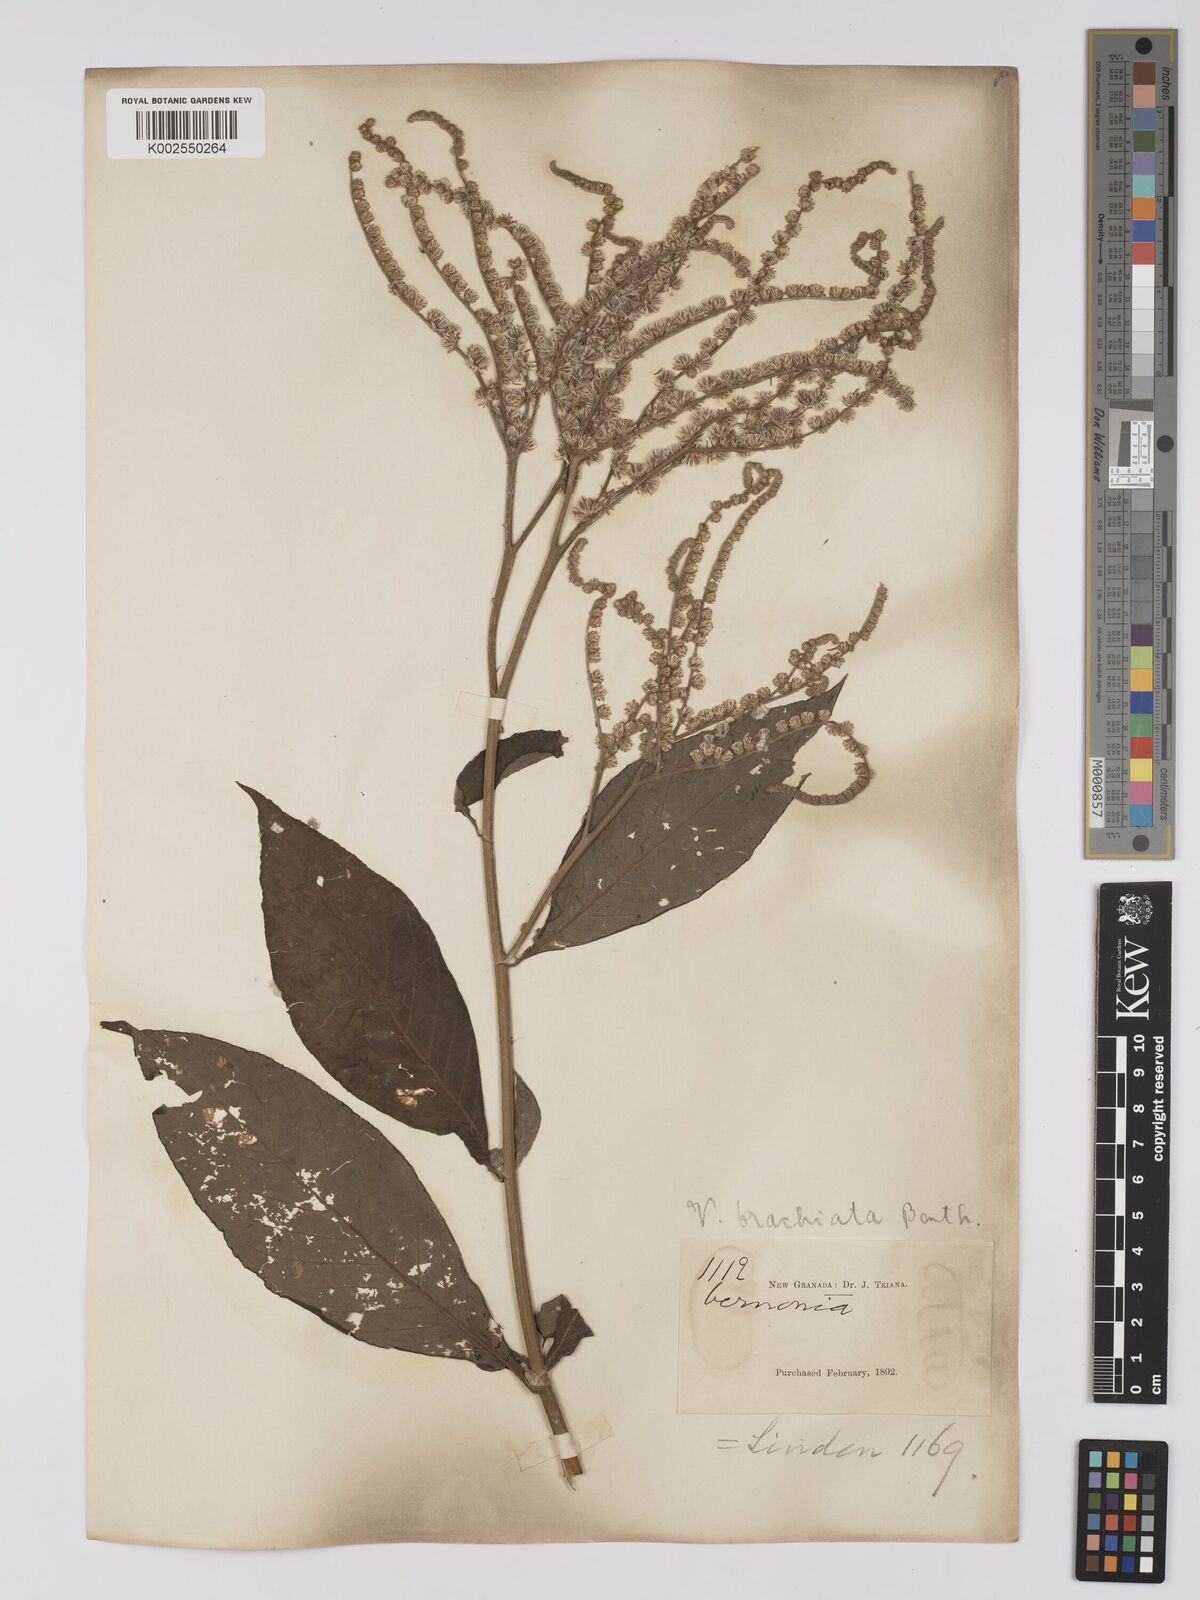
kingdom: Plantae
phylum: Tracheophyta
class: Magnoliopsida
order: Asterales
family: Asteraceae
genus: Eirmocephala
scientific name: Eirmocephala brachiata
